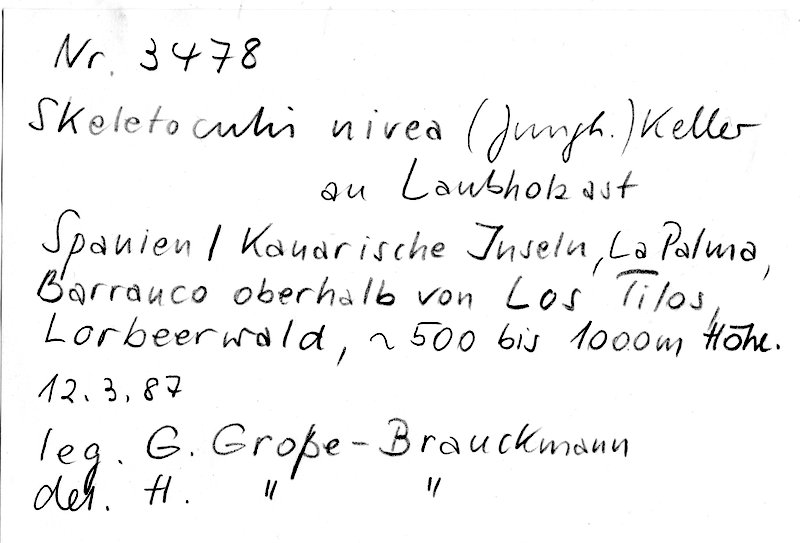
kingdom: Fungi
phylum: Basidiomycota
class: Agaricomycetes
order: Polyporales
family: Incrustoporiaceae
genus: Skeletocutis
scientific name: Skeletocutis nivea
